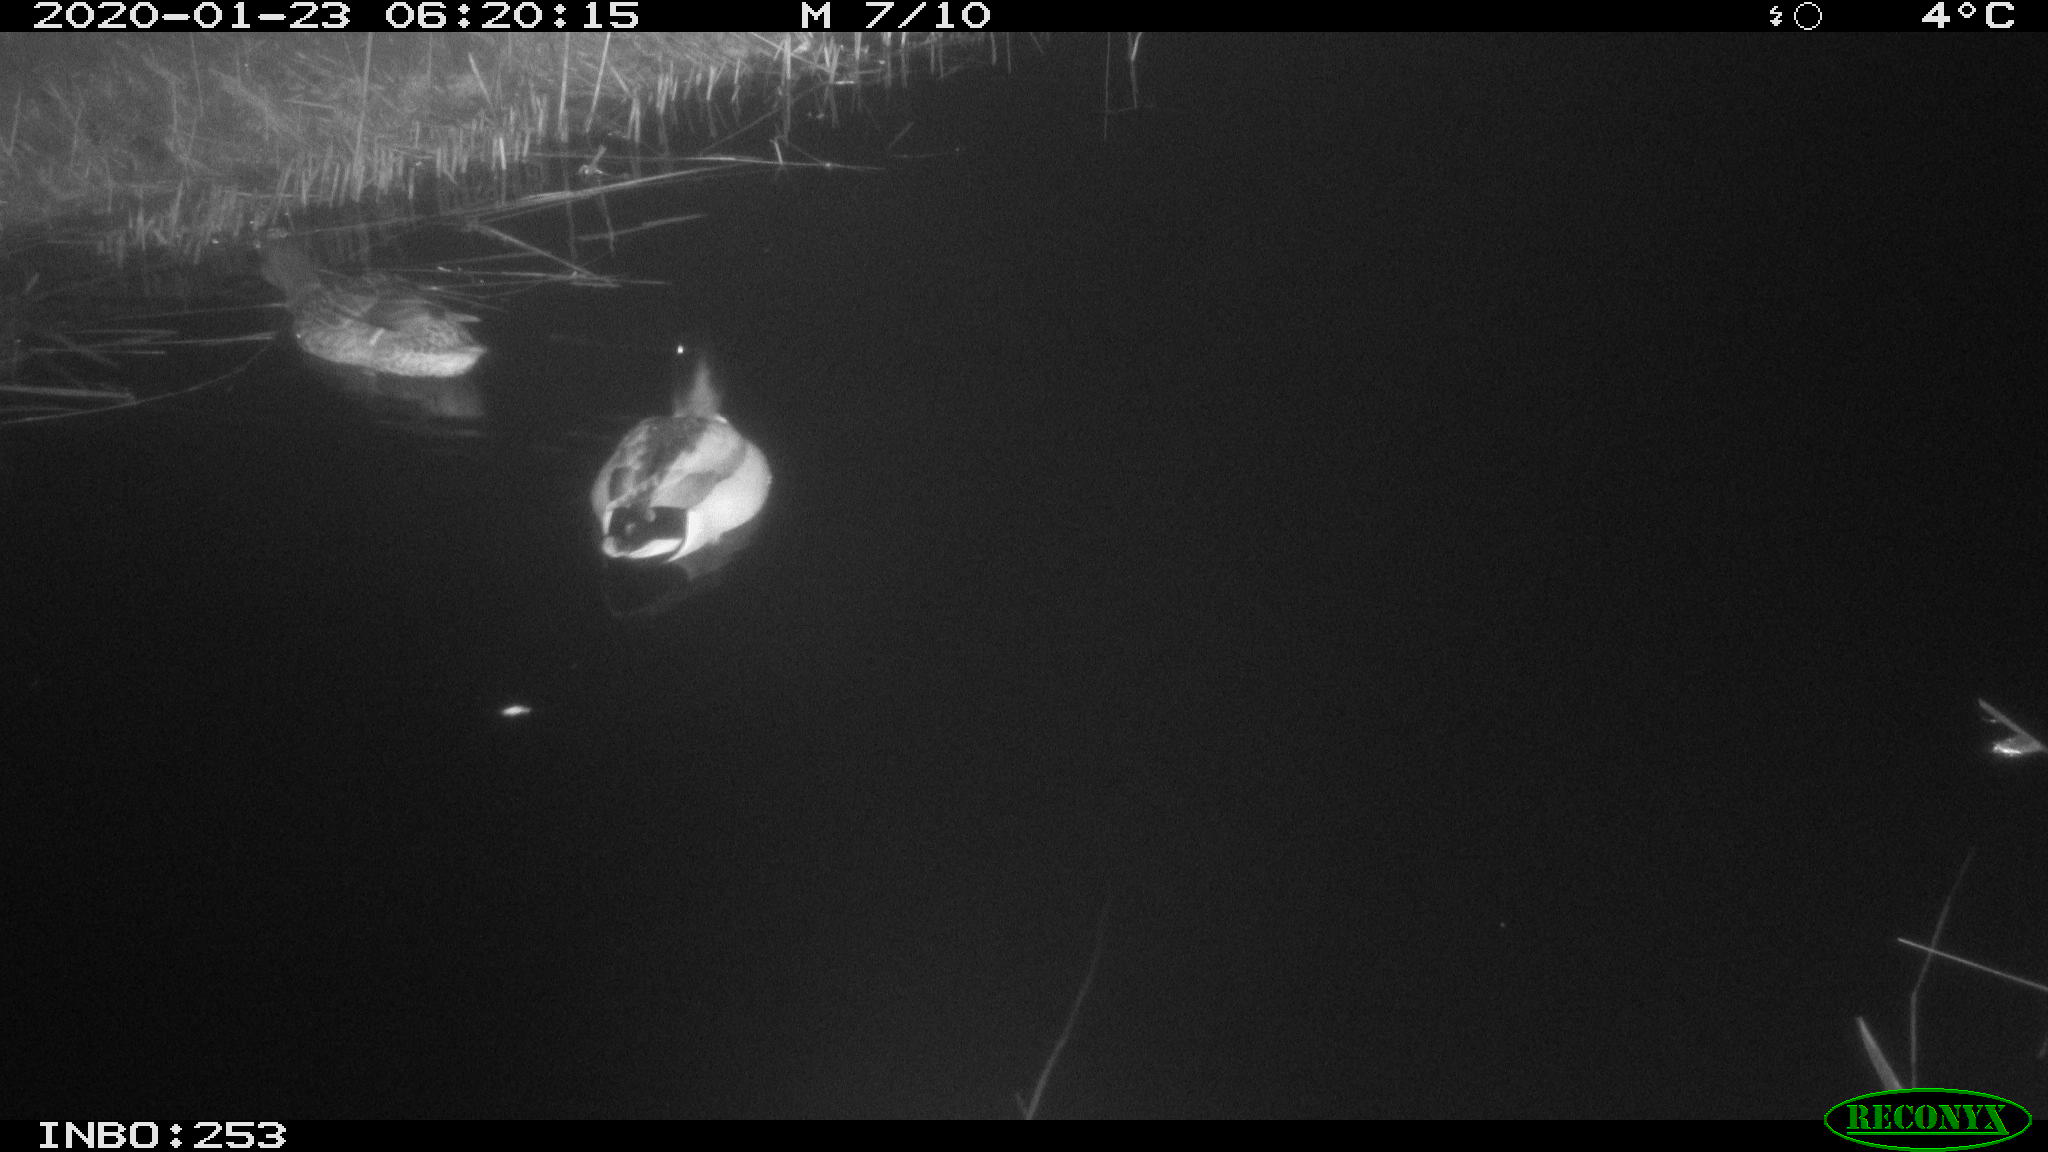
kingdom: Animalia
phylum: Chordata
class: Aves
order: Anseriformes
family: Anatidae
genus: Anas
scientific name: Anas platyrhynchos
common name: Mallard
